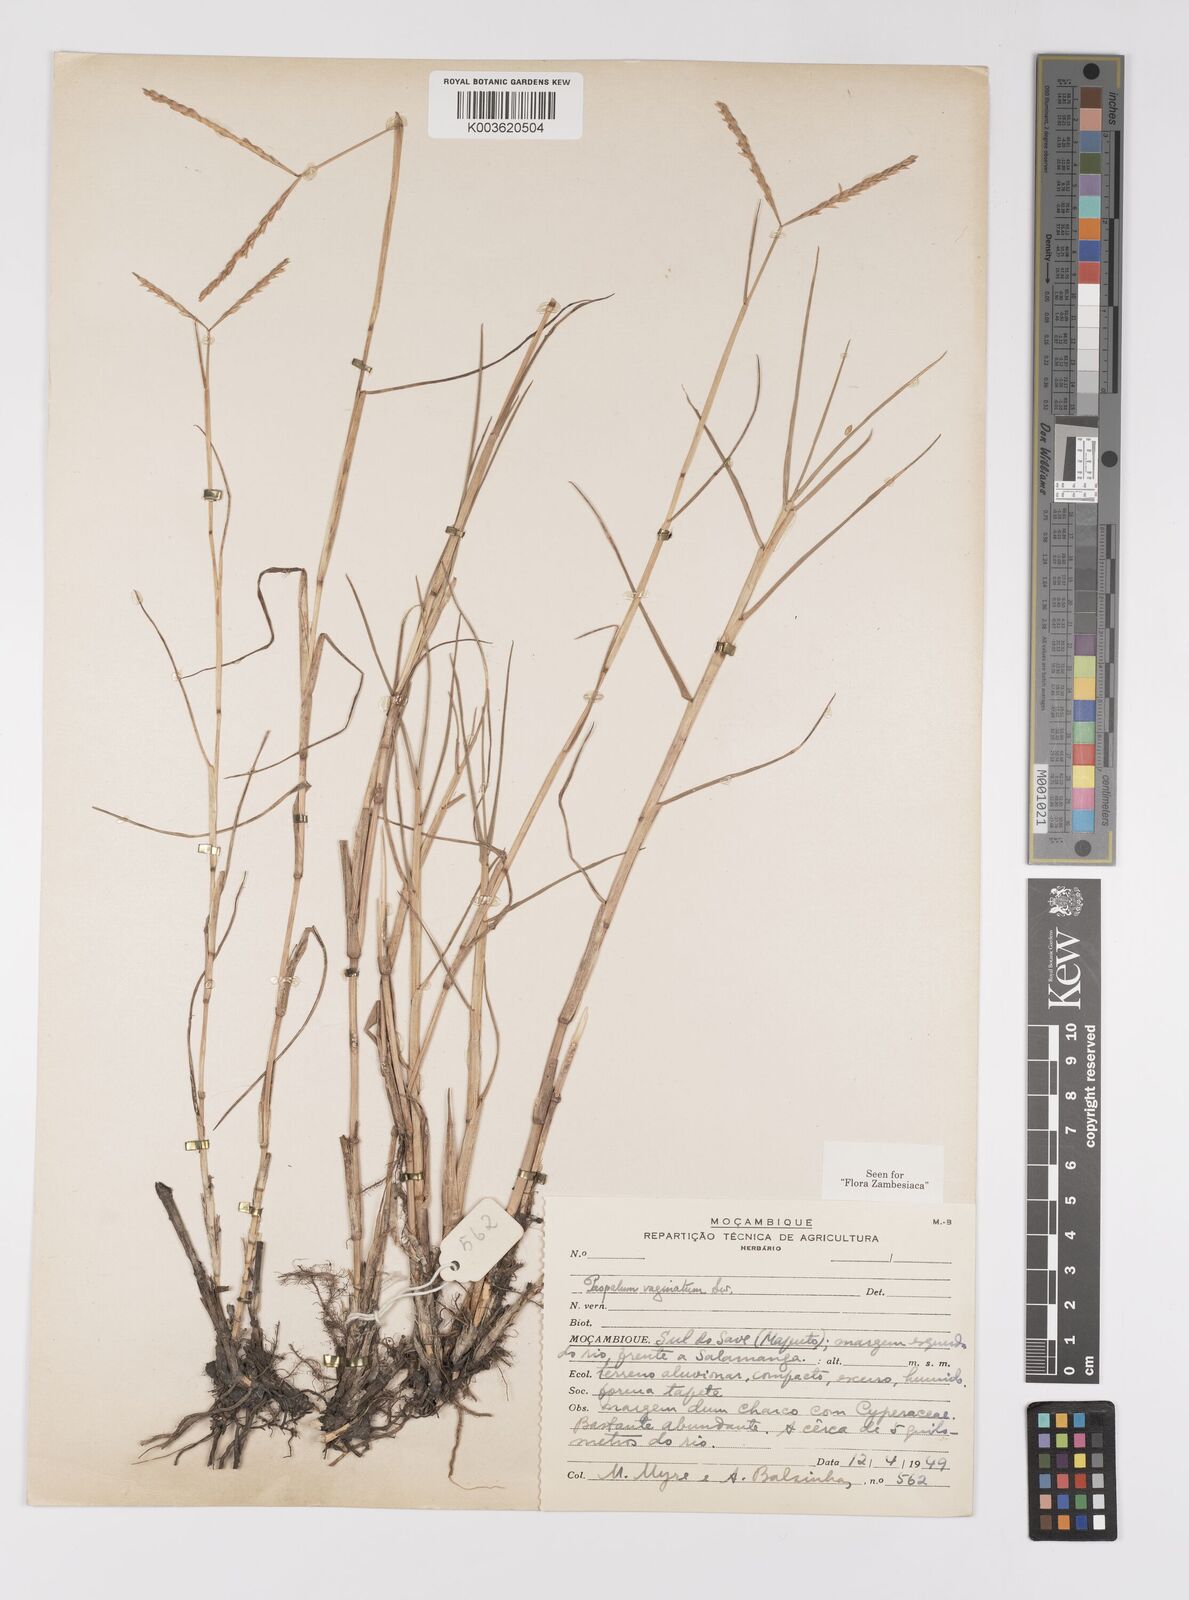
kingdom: Plantae
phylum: Tracheophyta
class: Liliopsida
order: Poales
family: Poaceae
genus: Paspalum
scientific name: Paspalum vaginatum
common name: Seashore paspalum
